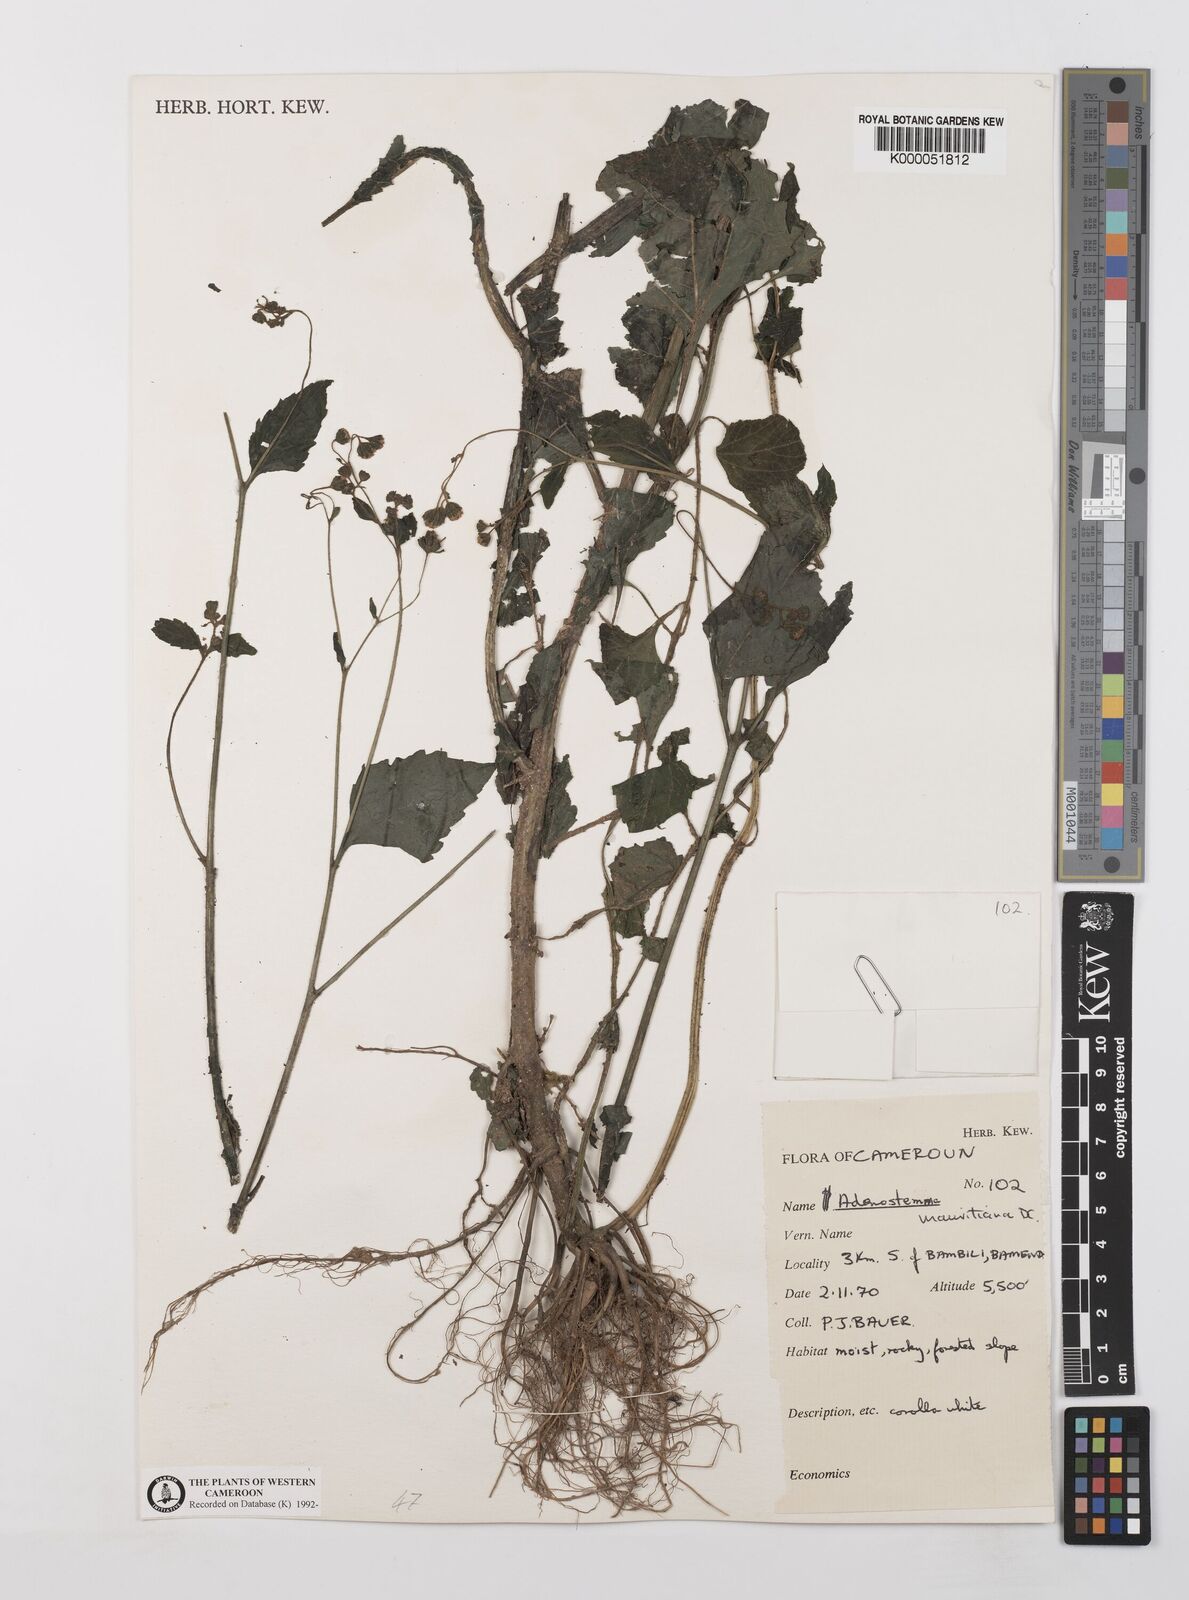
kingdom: Plantae
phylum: Tracheophyta
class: Magnoliopsida
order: Asterales
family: Asteraceae
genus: Adenostemma
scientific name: Adenostemma mauritianum
